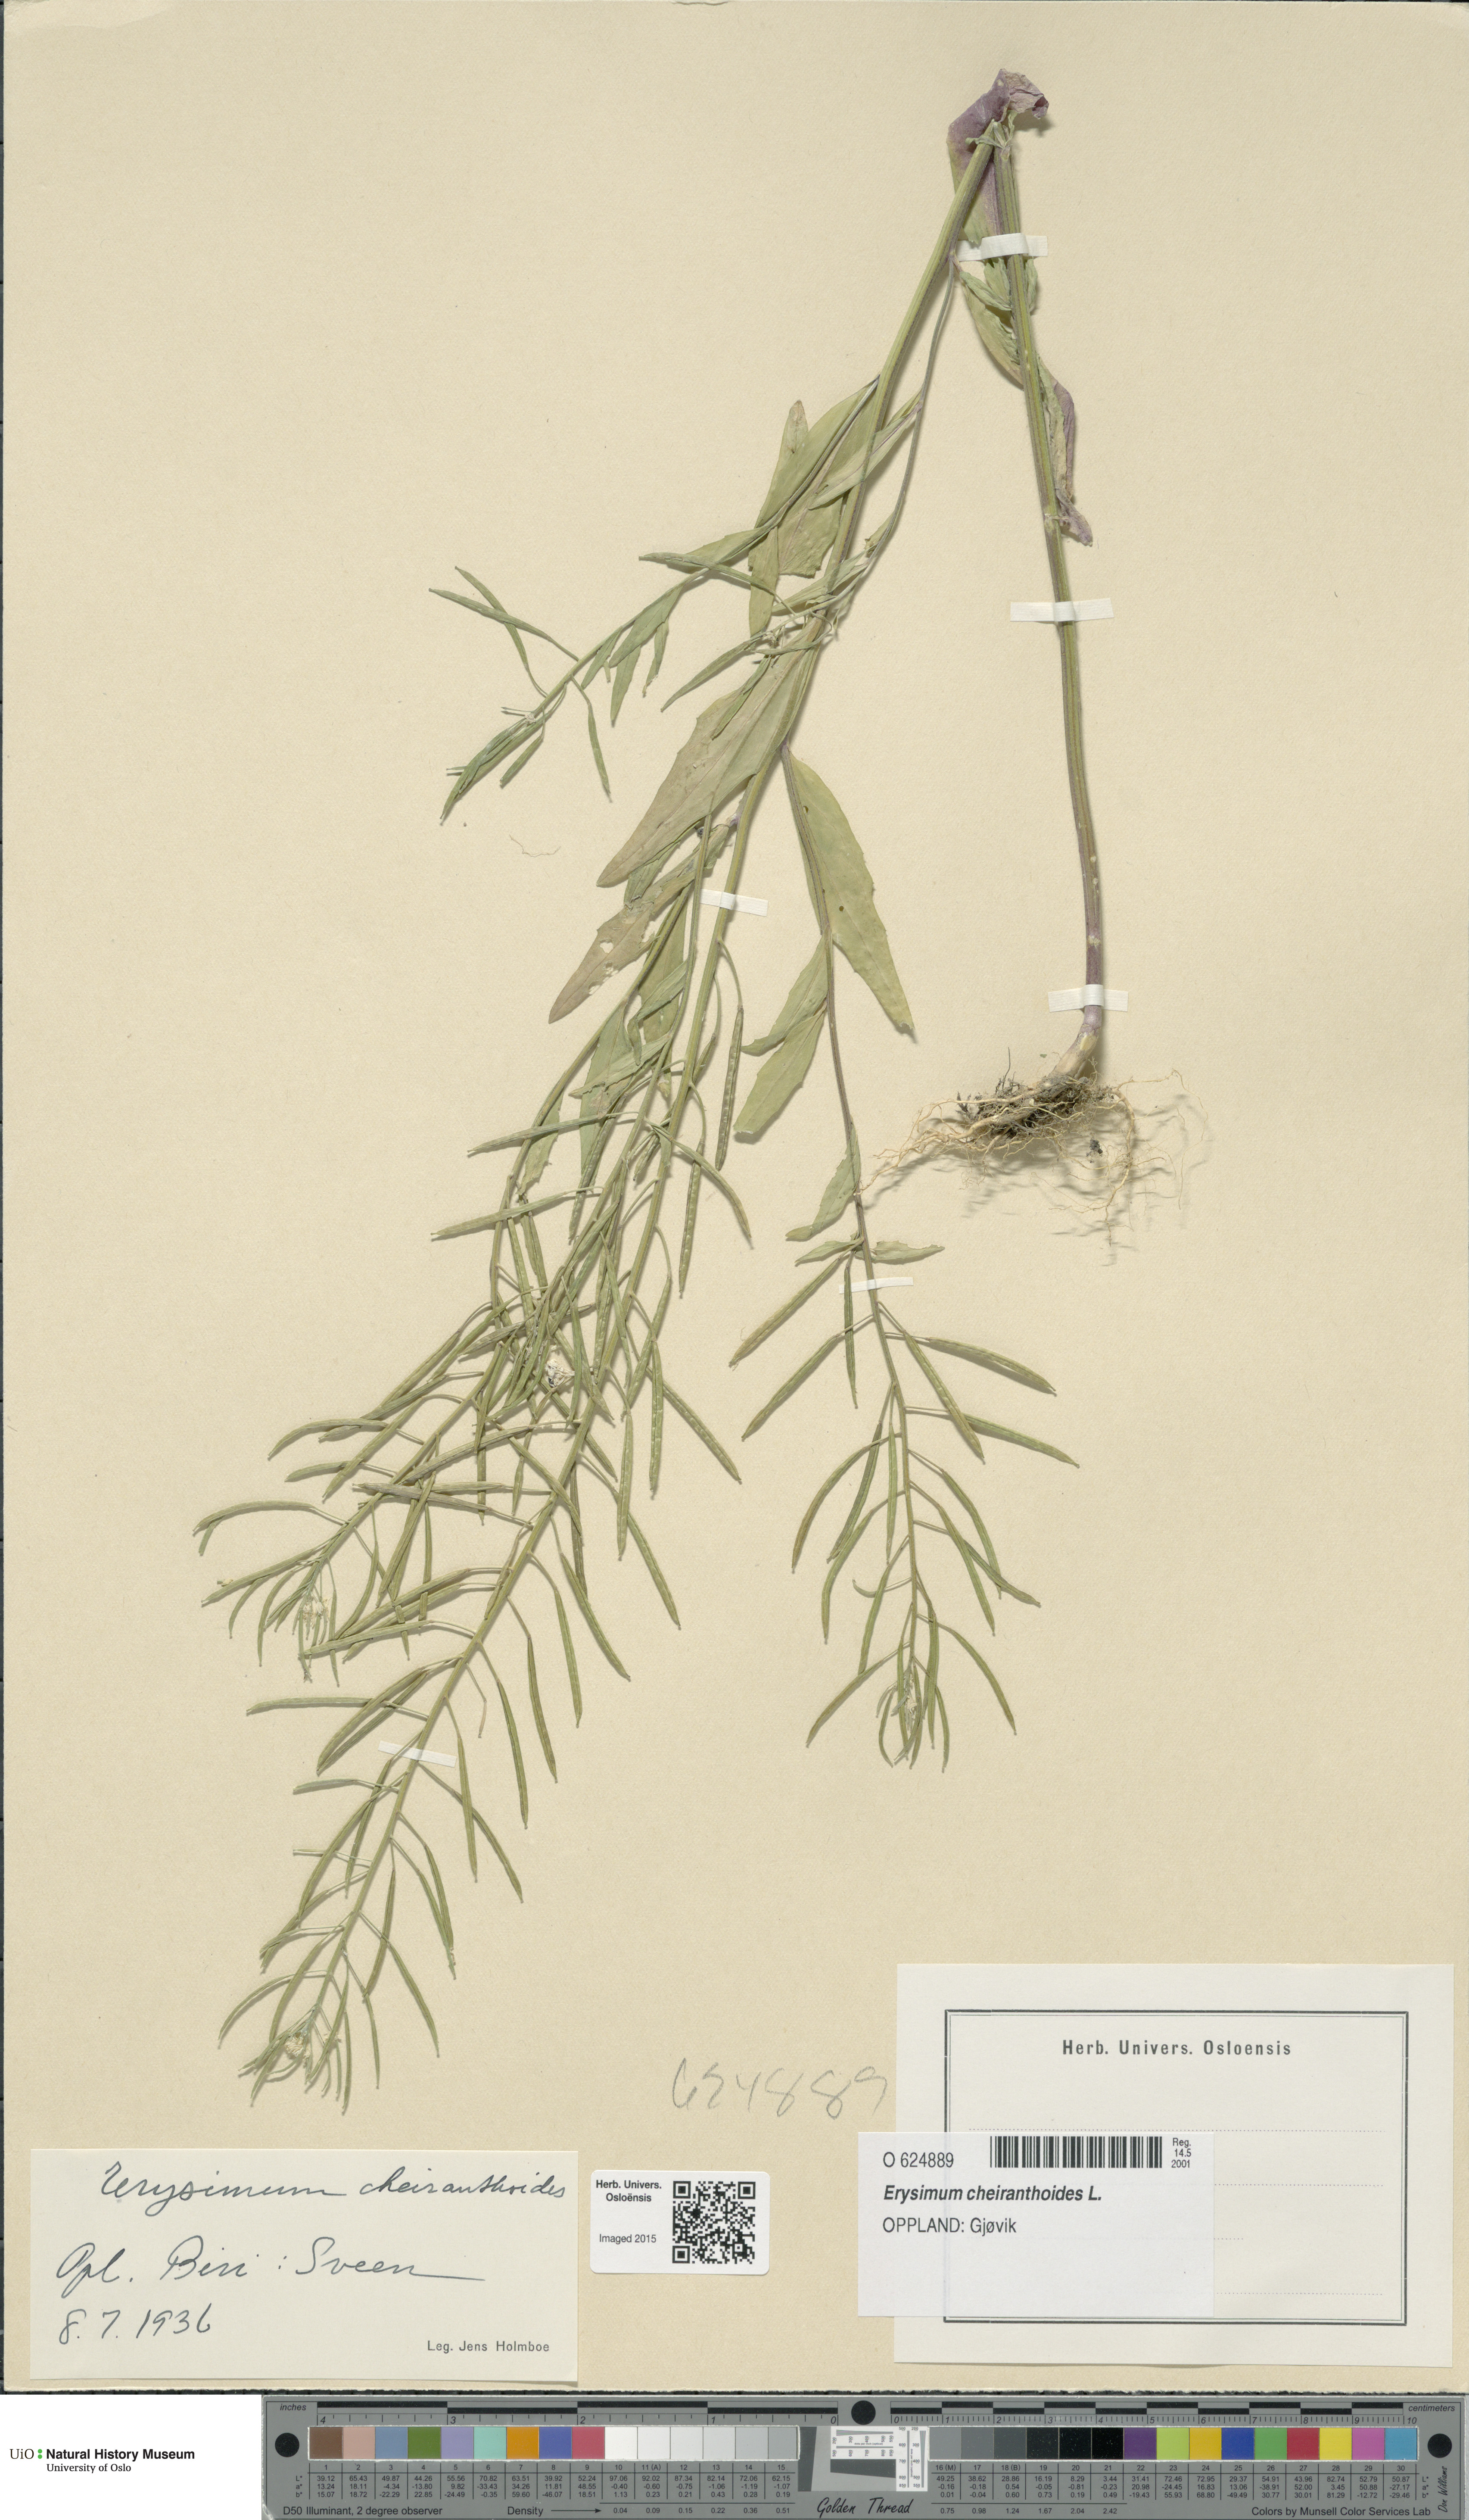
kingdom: Plantae
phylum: Tracheophyta
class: Magnoliopsida
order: Brassicales
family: Brassicaceae
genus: Erysimum
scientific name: Erysimum cheiranthoides
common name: Treacle mustard
